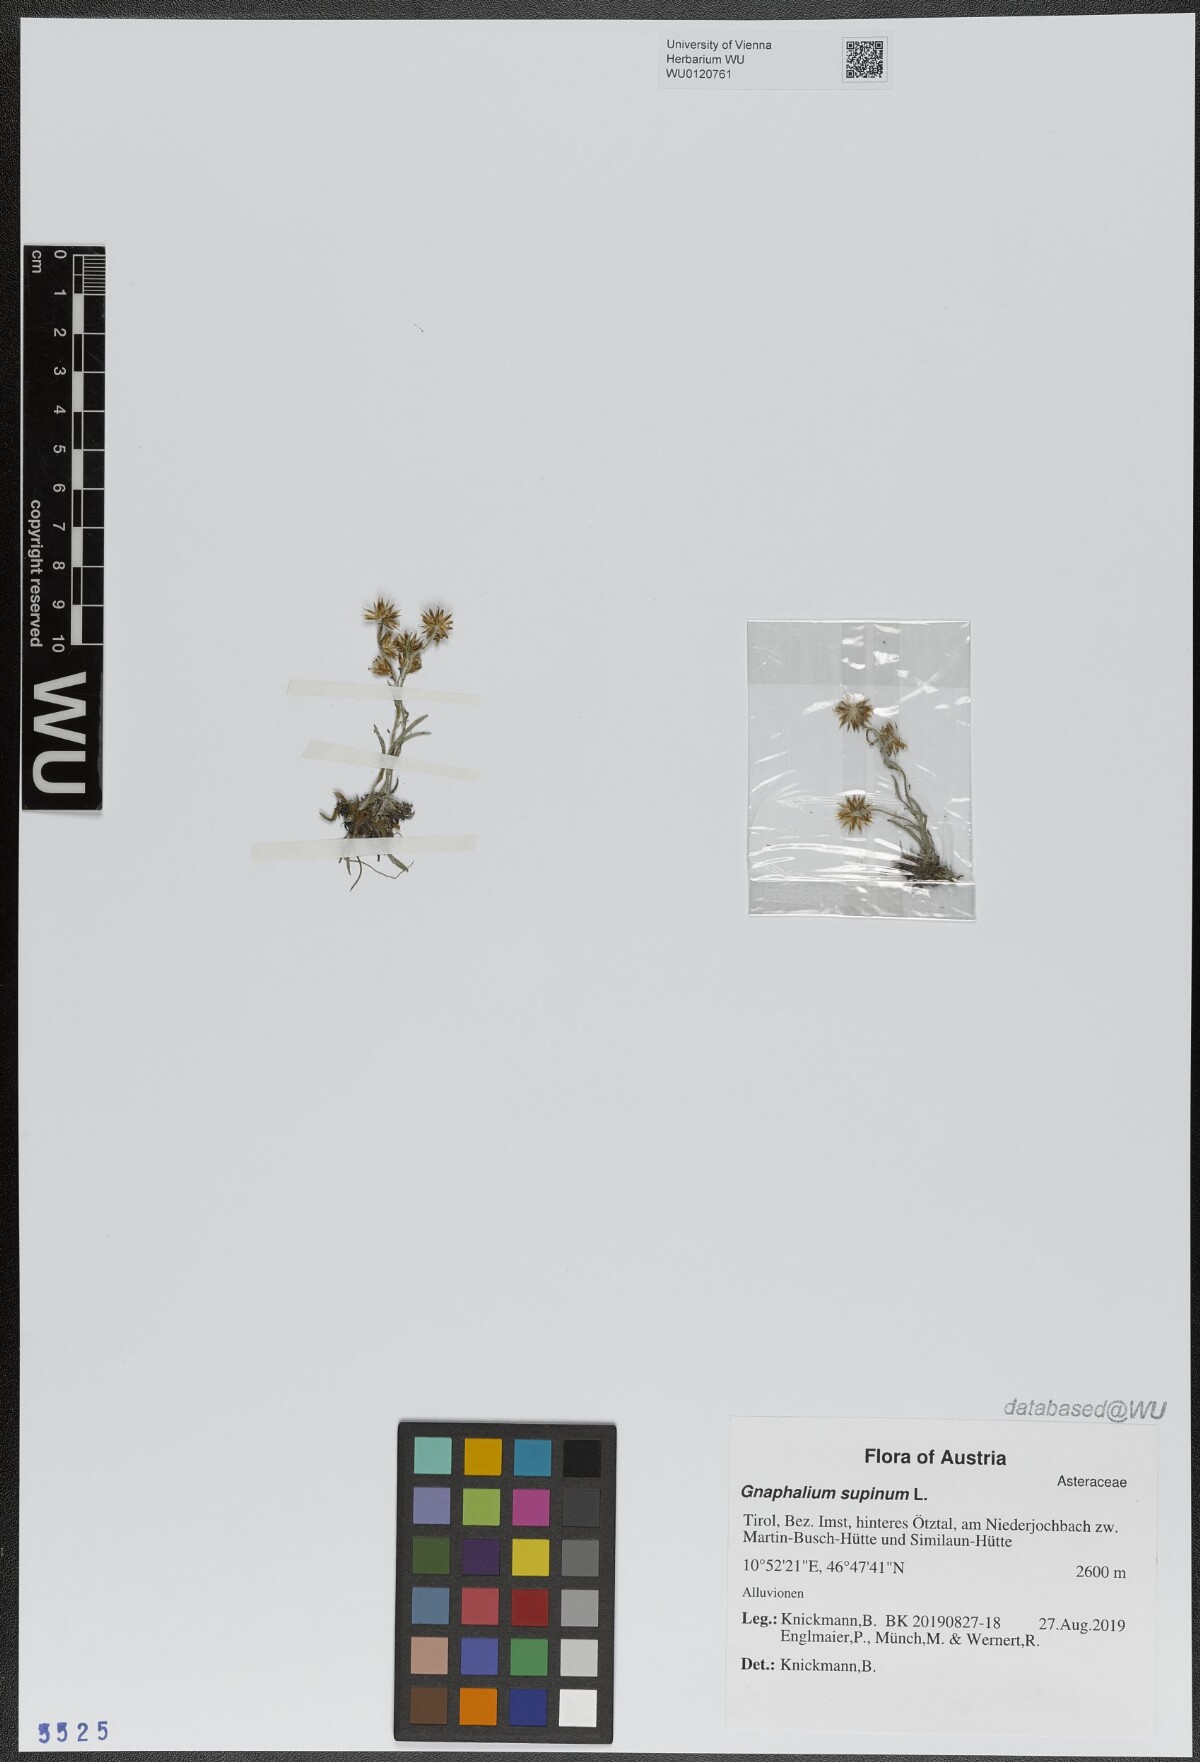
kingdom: Plantae
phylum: Tracheophyta
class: Magnoliopsida
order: Asterales
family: Asteraceae
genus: Omalotheca
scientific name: Omalotheca supina
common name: Alpine arctic-cudweed
